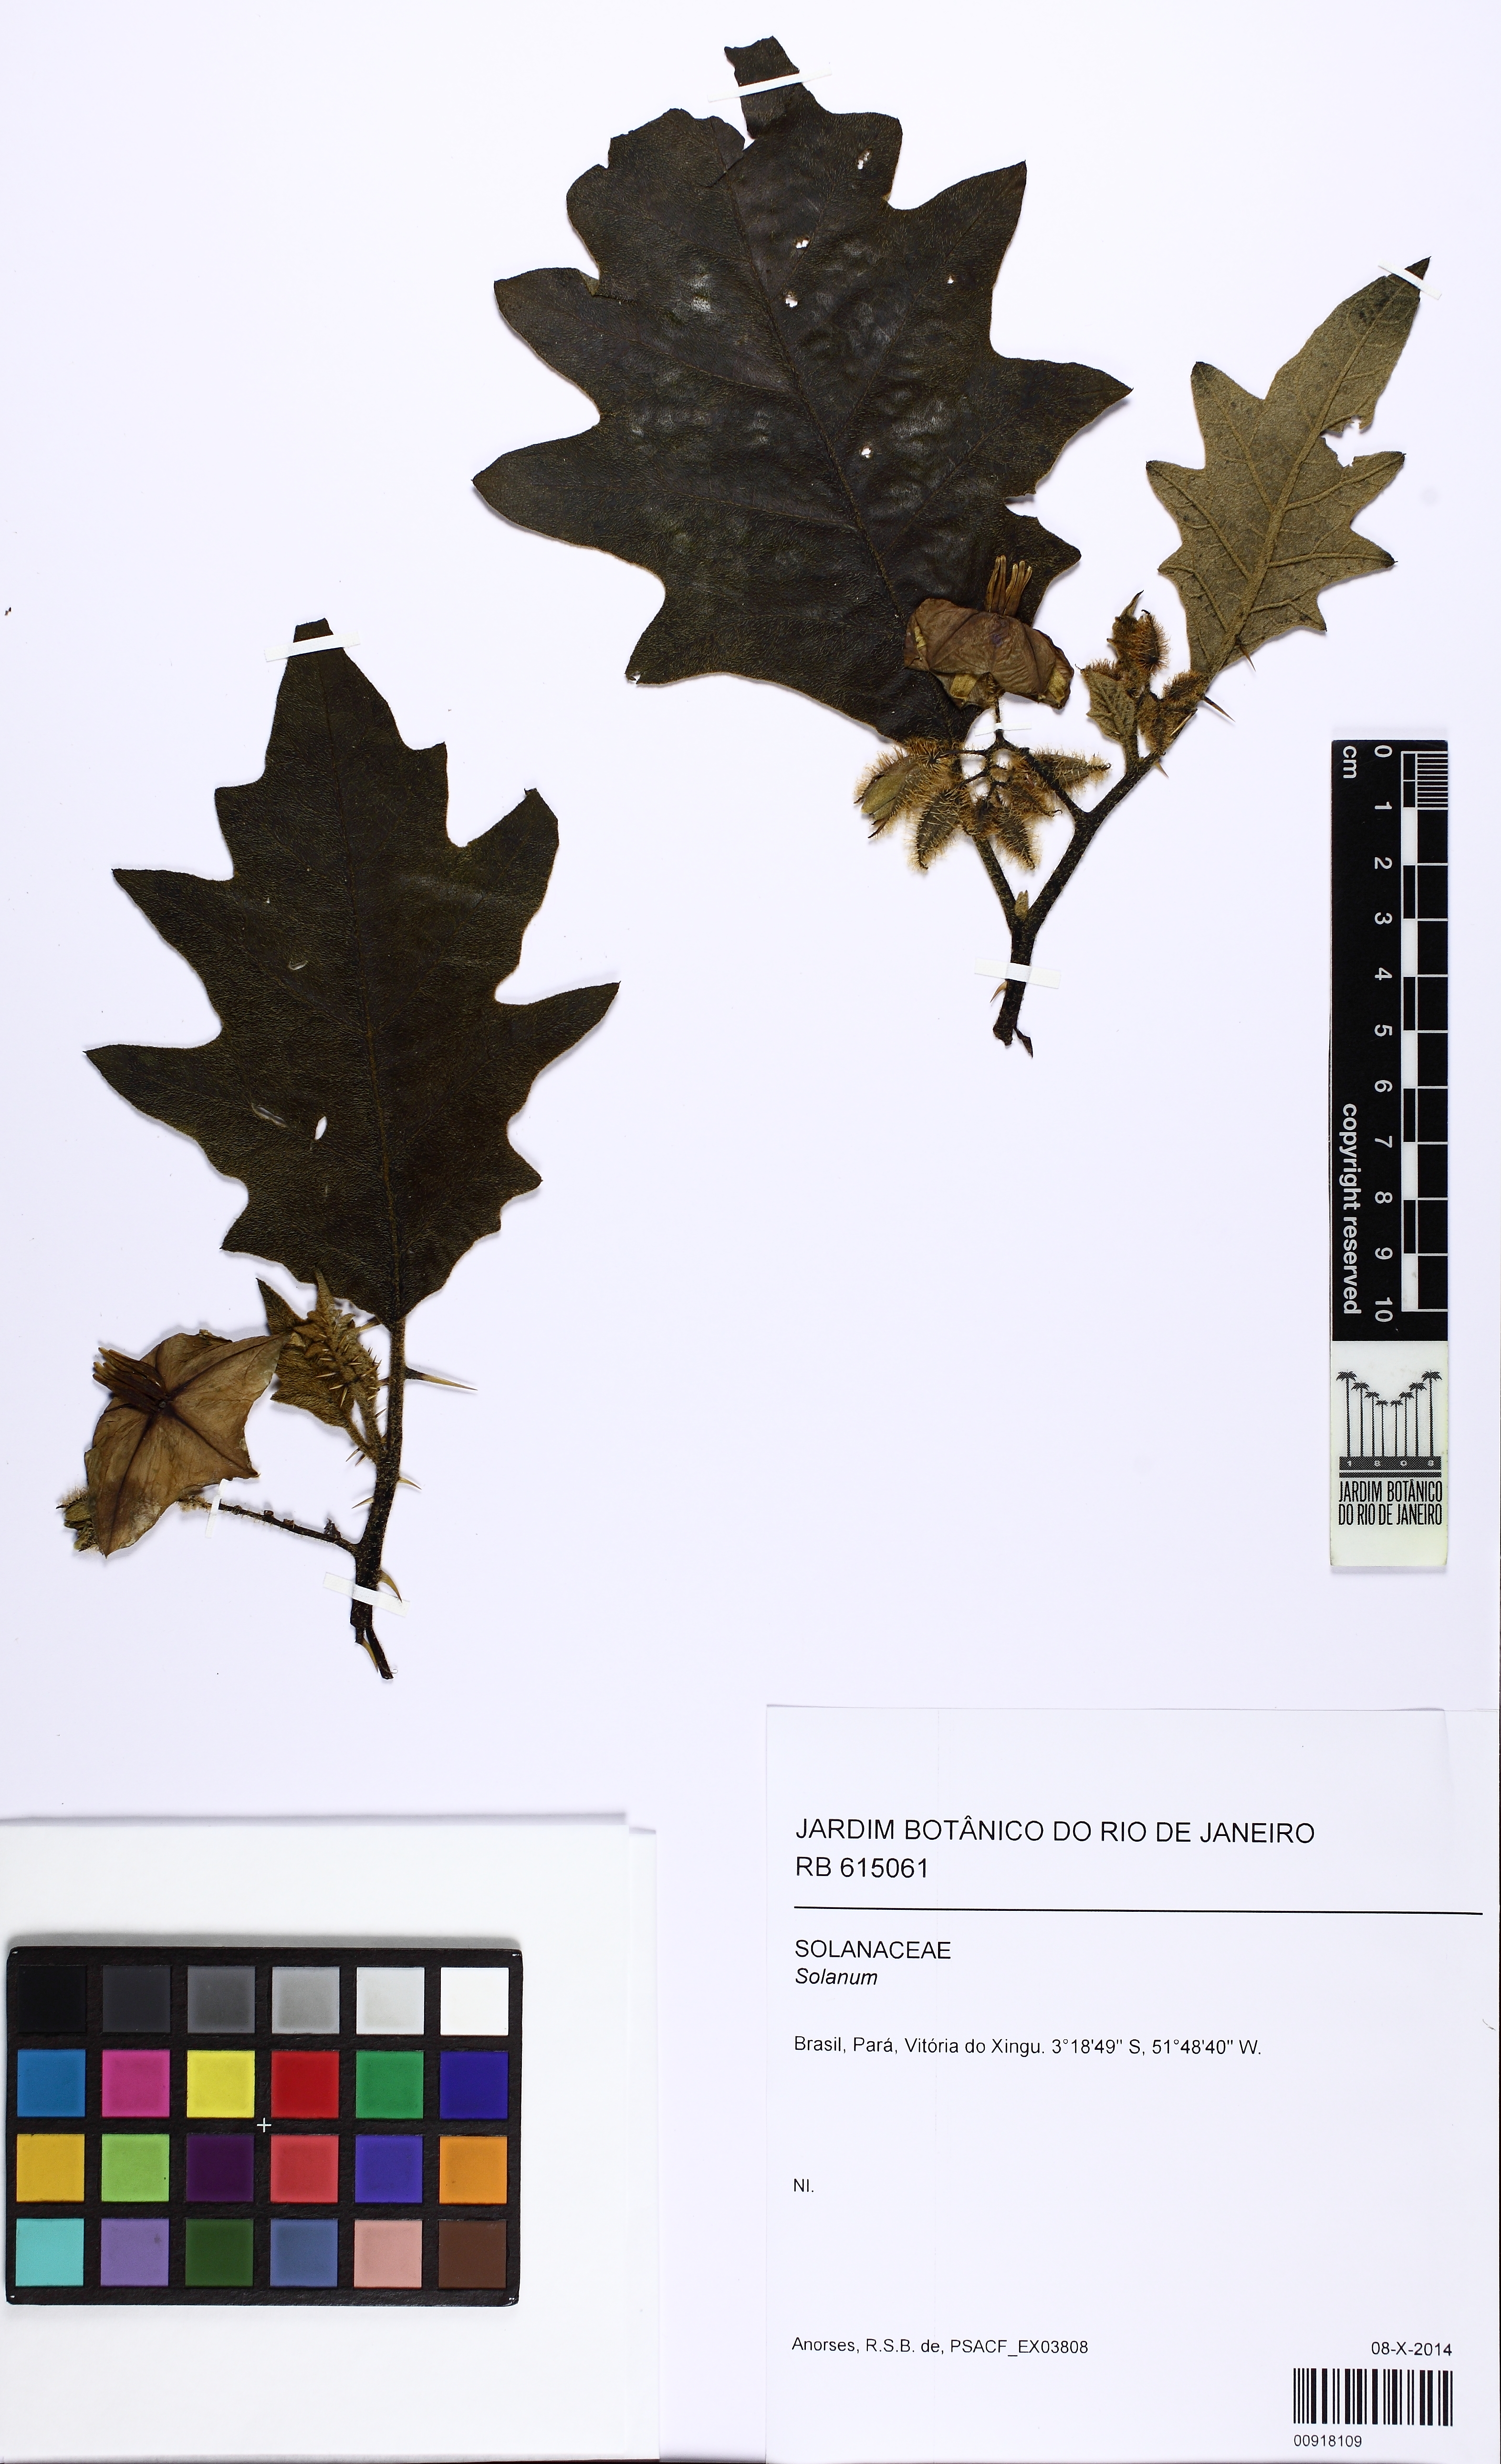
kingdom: Plantae
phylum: Tracheophyta
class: Magnoliopsida
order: Solanales
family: Solanaceae
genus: Solanum
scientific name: Solanum vanheurckii
